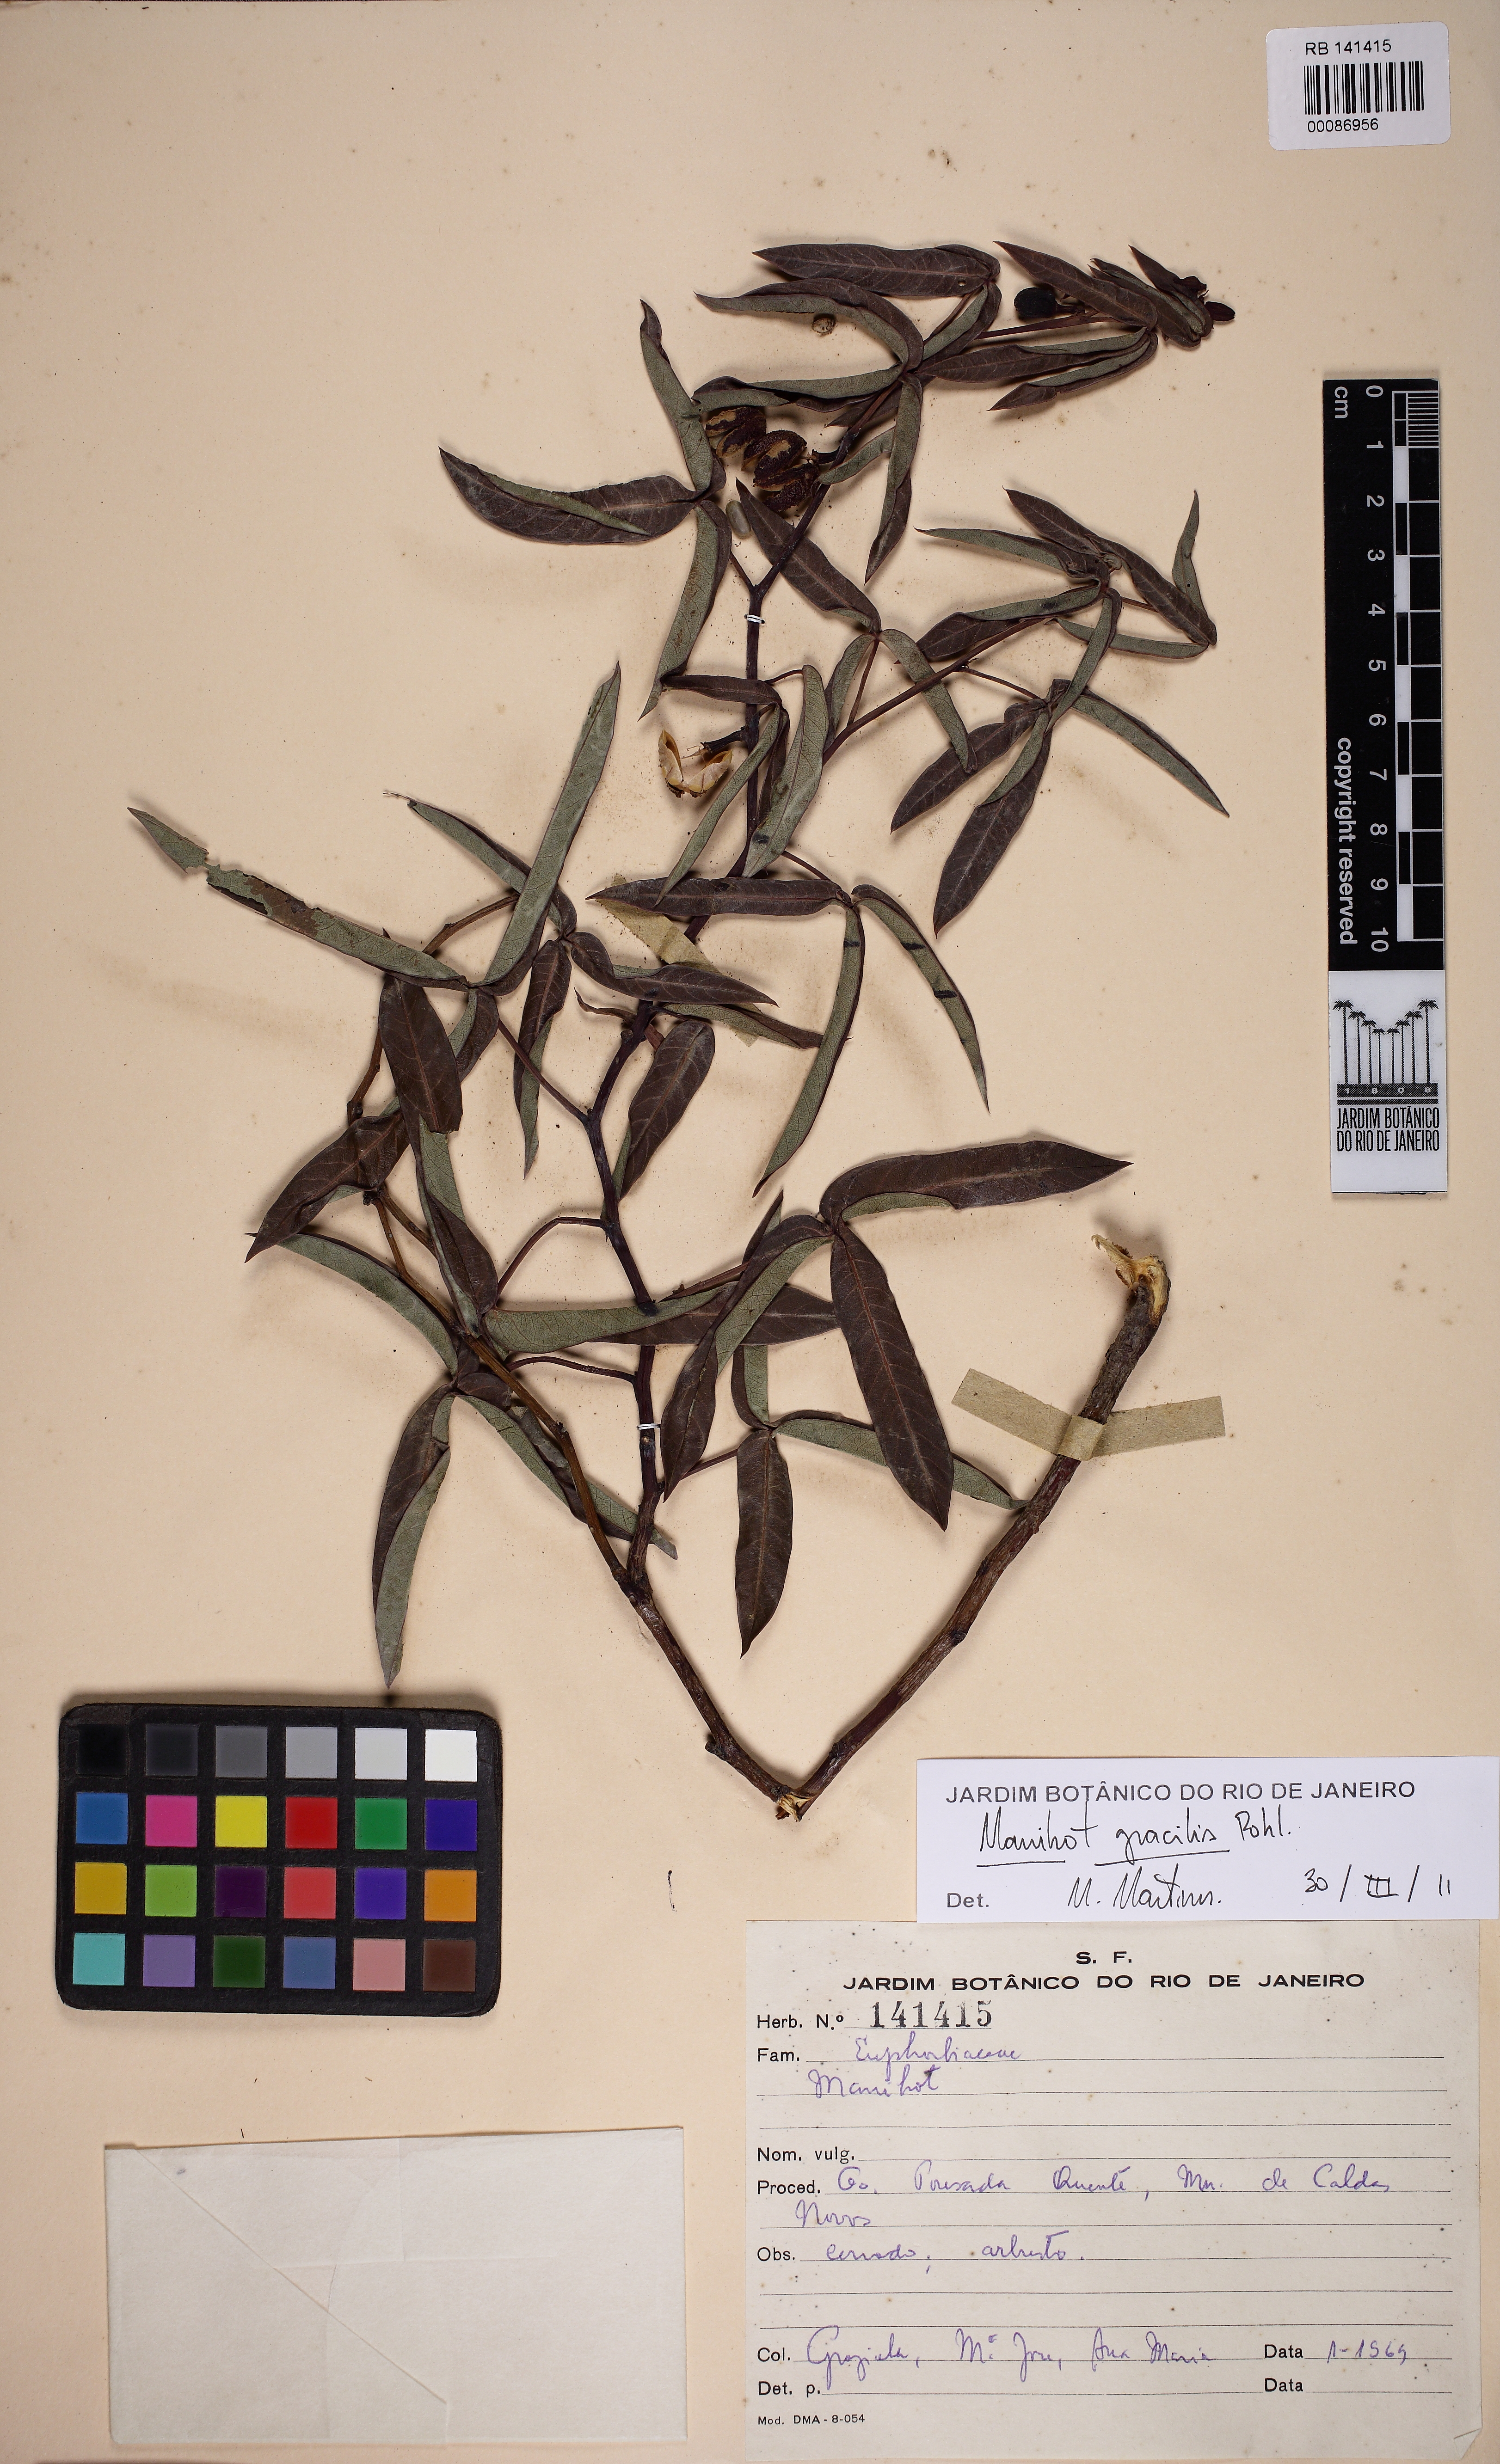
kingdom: Plantae
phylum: Tracheophyta
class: Magnoliopsida
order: Malpighiales
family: Euphorbiaceae
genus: Manihot
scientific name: Manihot divergens
